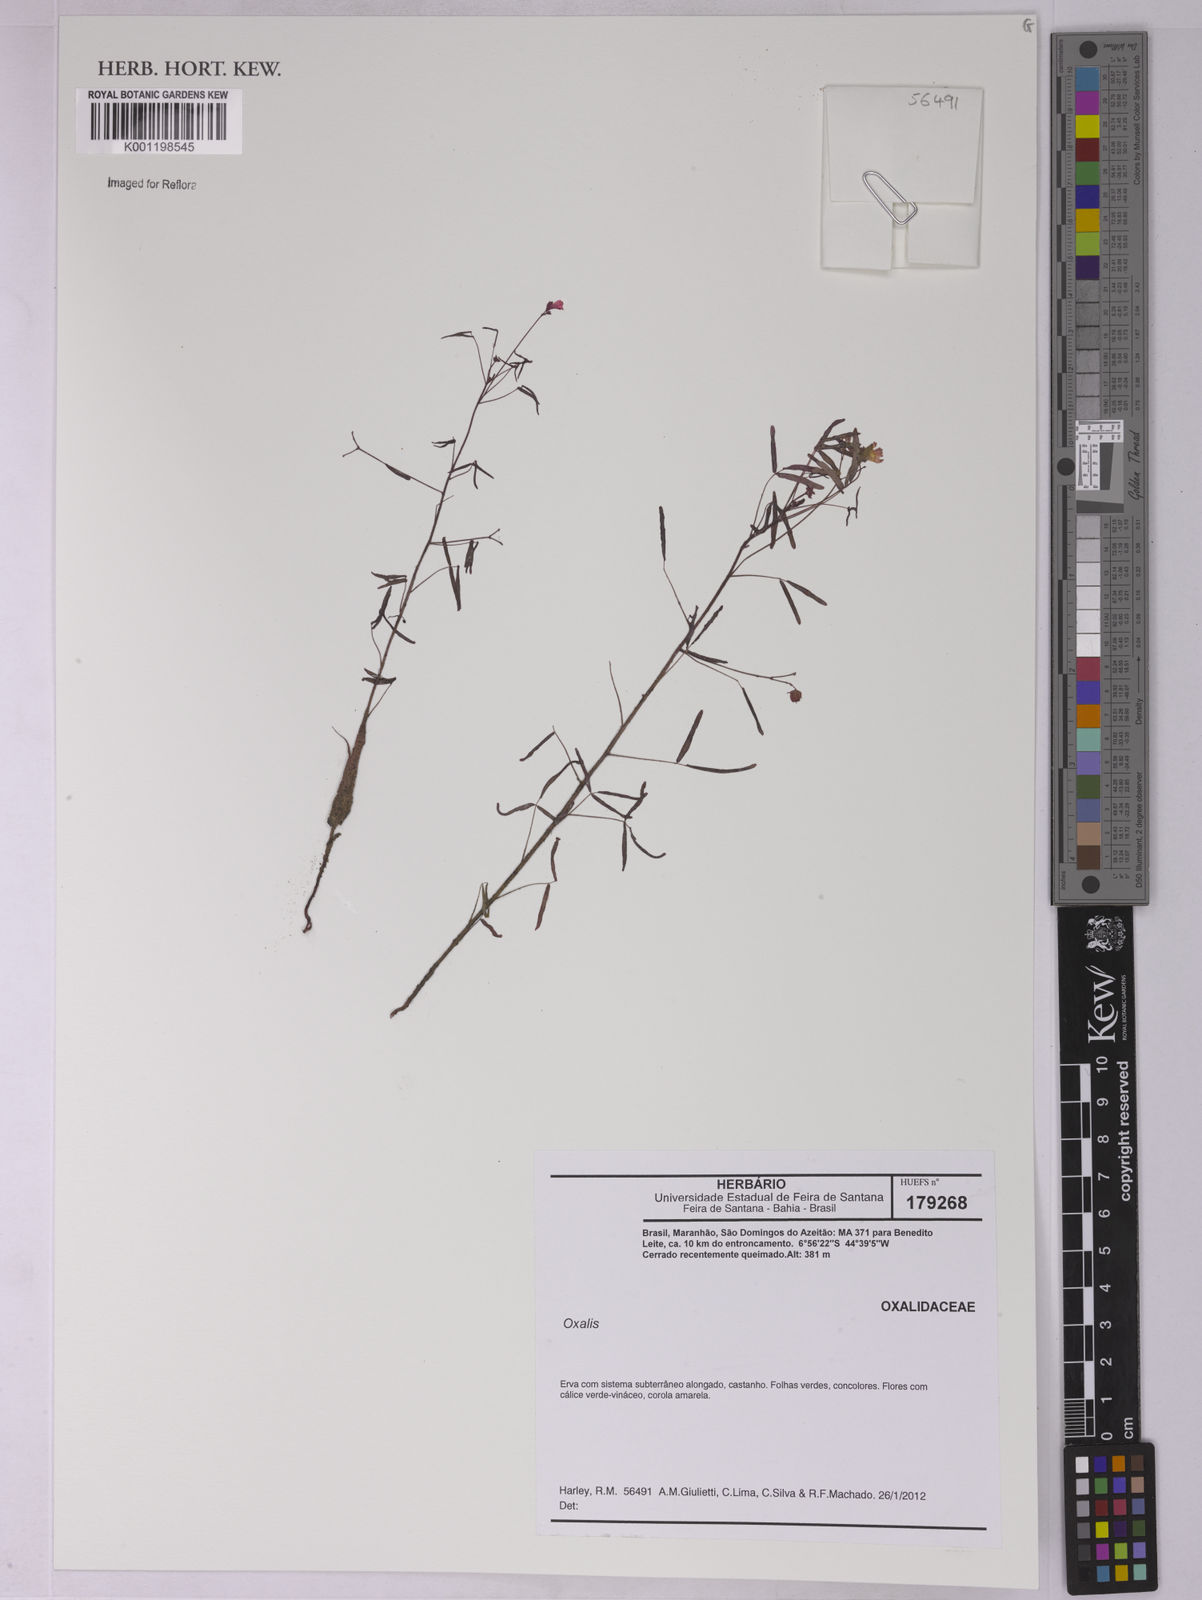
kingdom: Plantae
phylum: Tracheophyta
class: Magnoliopsida
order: Oxalidales
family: Oxalidaceae
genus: Oxalis
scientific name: Oxalis
